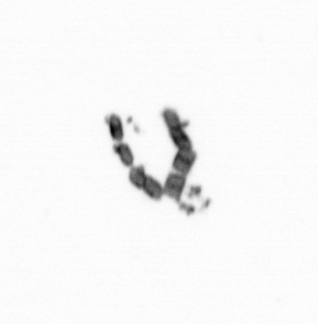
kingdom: Chromista
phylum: Ochrophyta
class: Bacillariophyceae
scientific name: Bacillariophyceae
